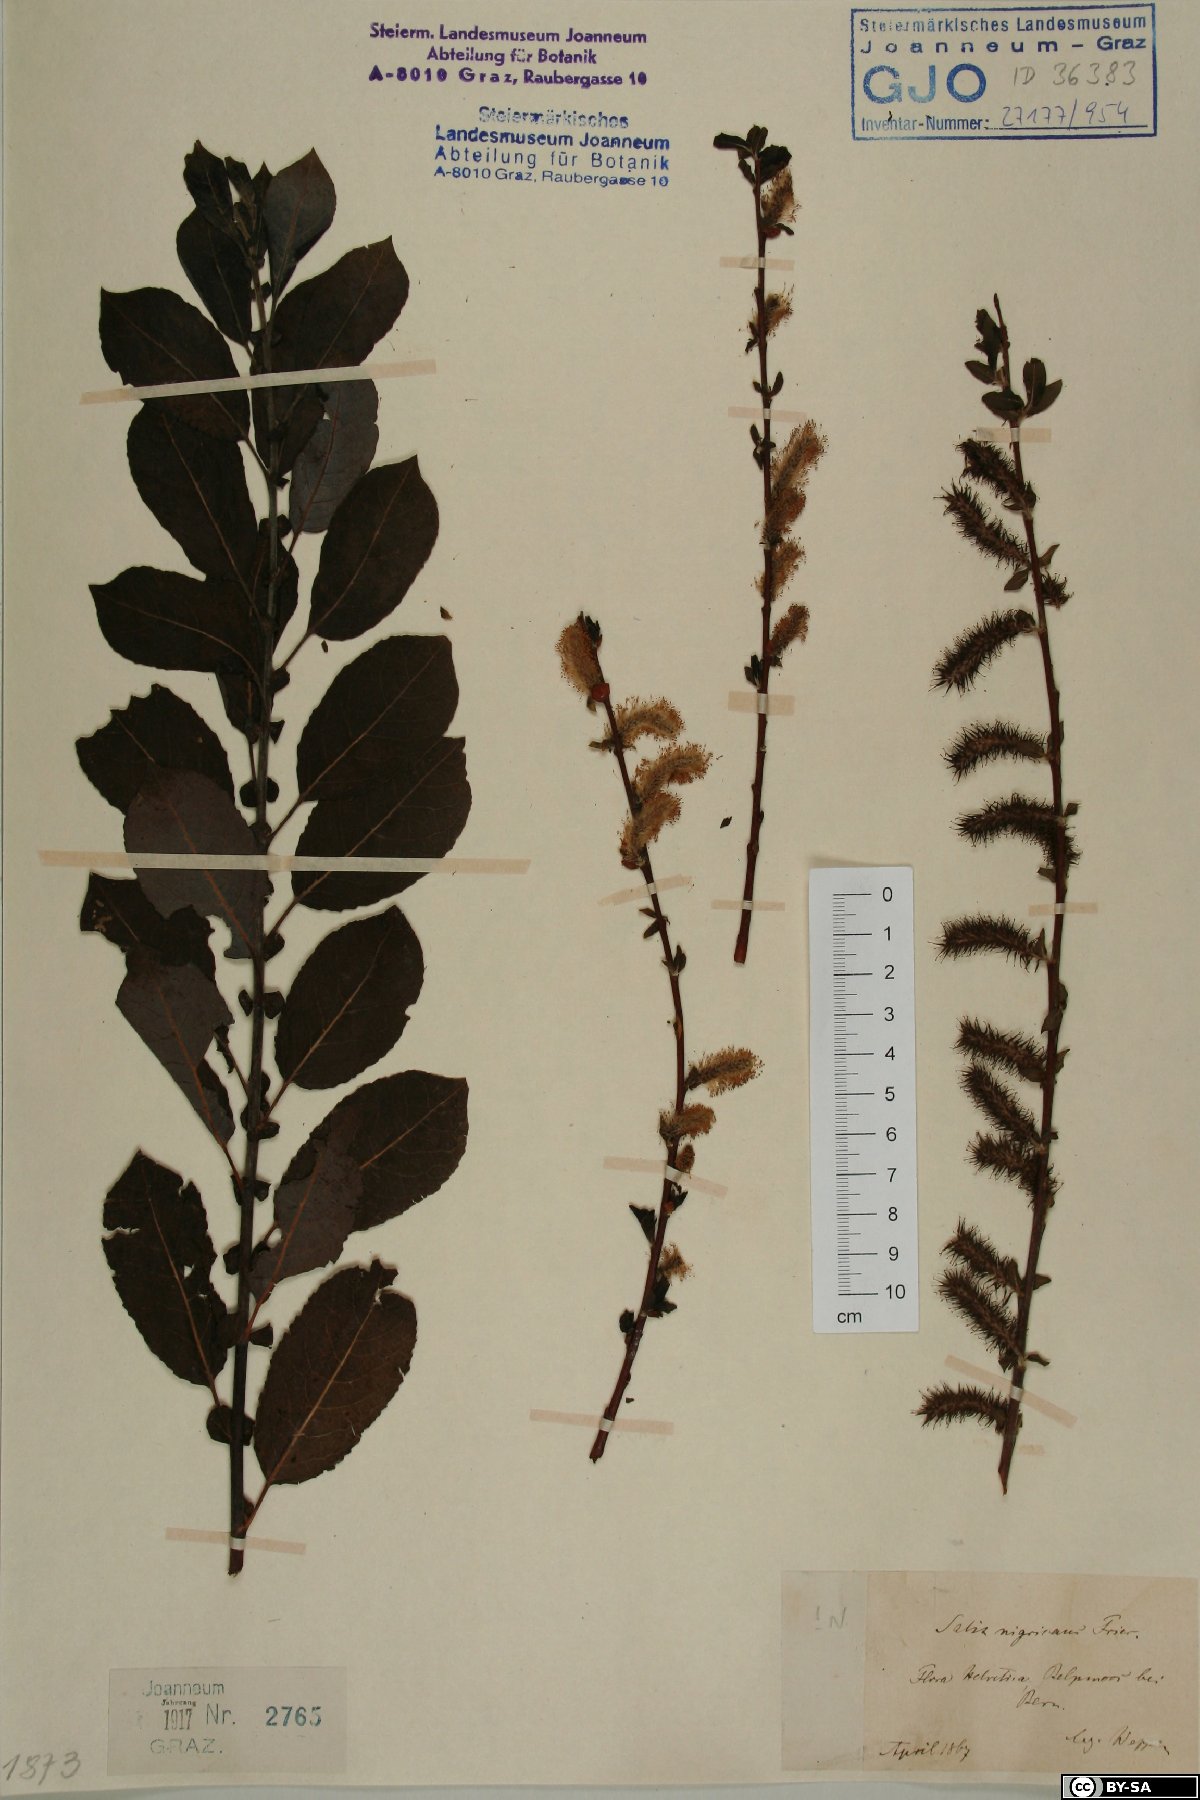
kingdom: Plantae
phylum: Tracheophyta
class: Magnoliopsida
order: Malpighiales
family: Salicaceae
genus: Salix
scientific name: Salix myrsinifolia
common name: Dark-leaved willow
